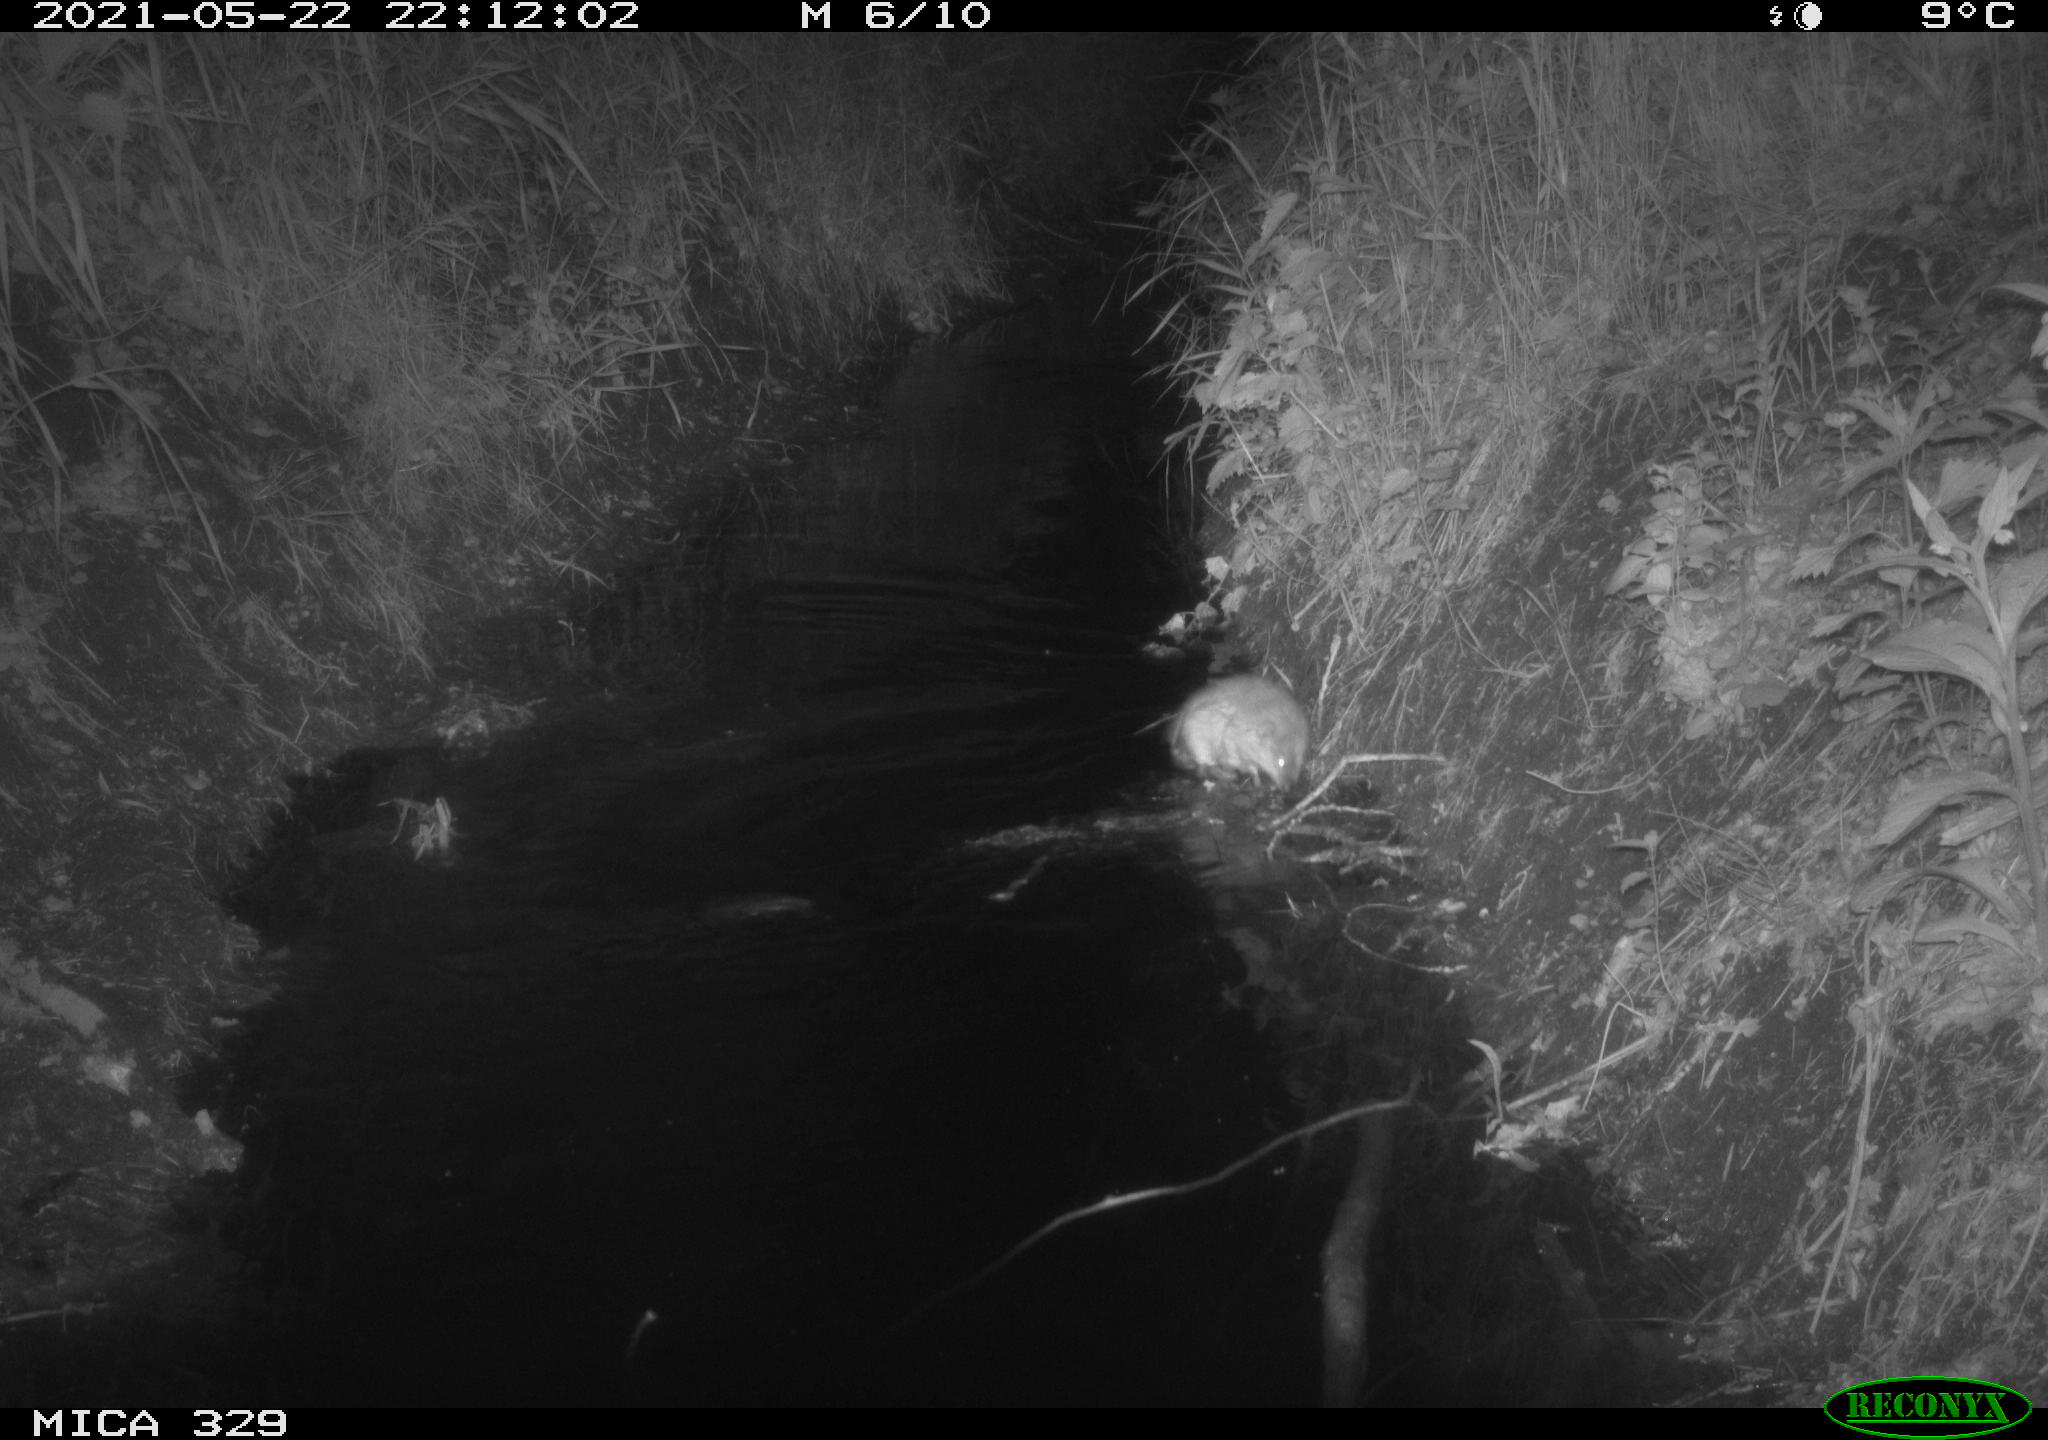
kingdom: Animalia
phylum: Chordata
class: Mammalia
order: Rodentia
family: Cricetidae
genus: Ondatra
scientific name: Ondatra zibethicus
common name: Muskrat
